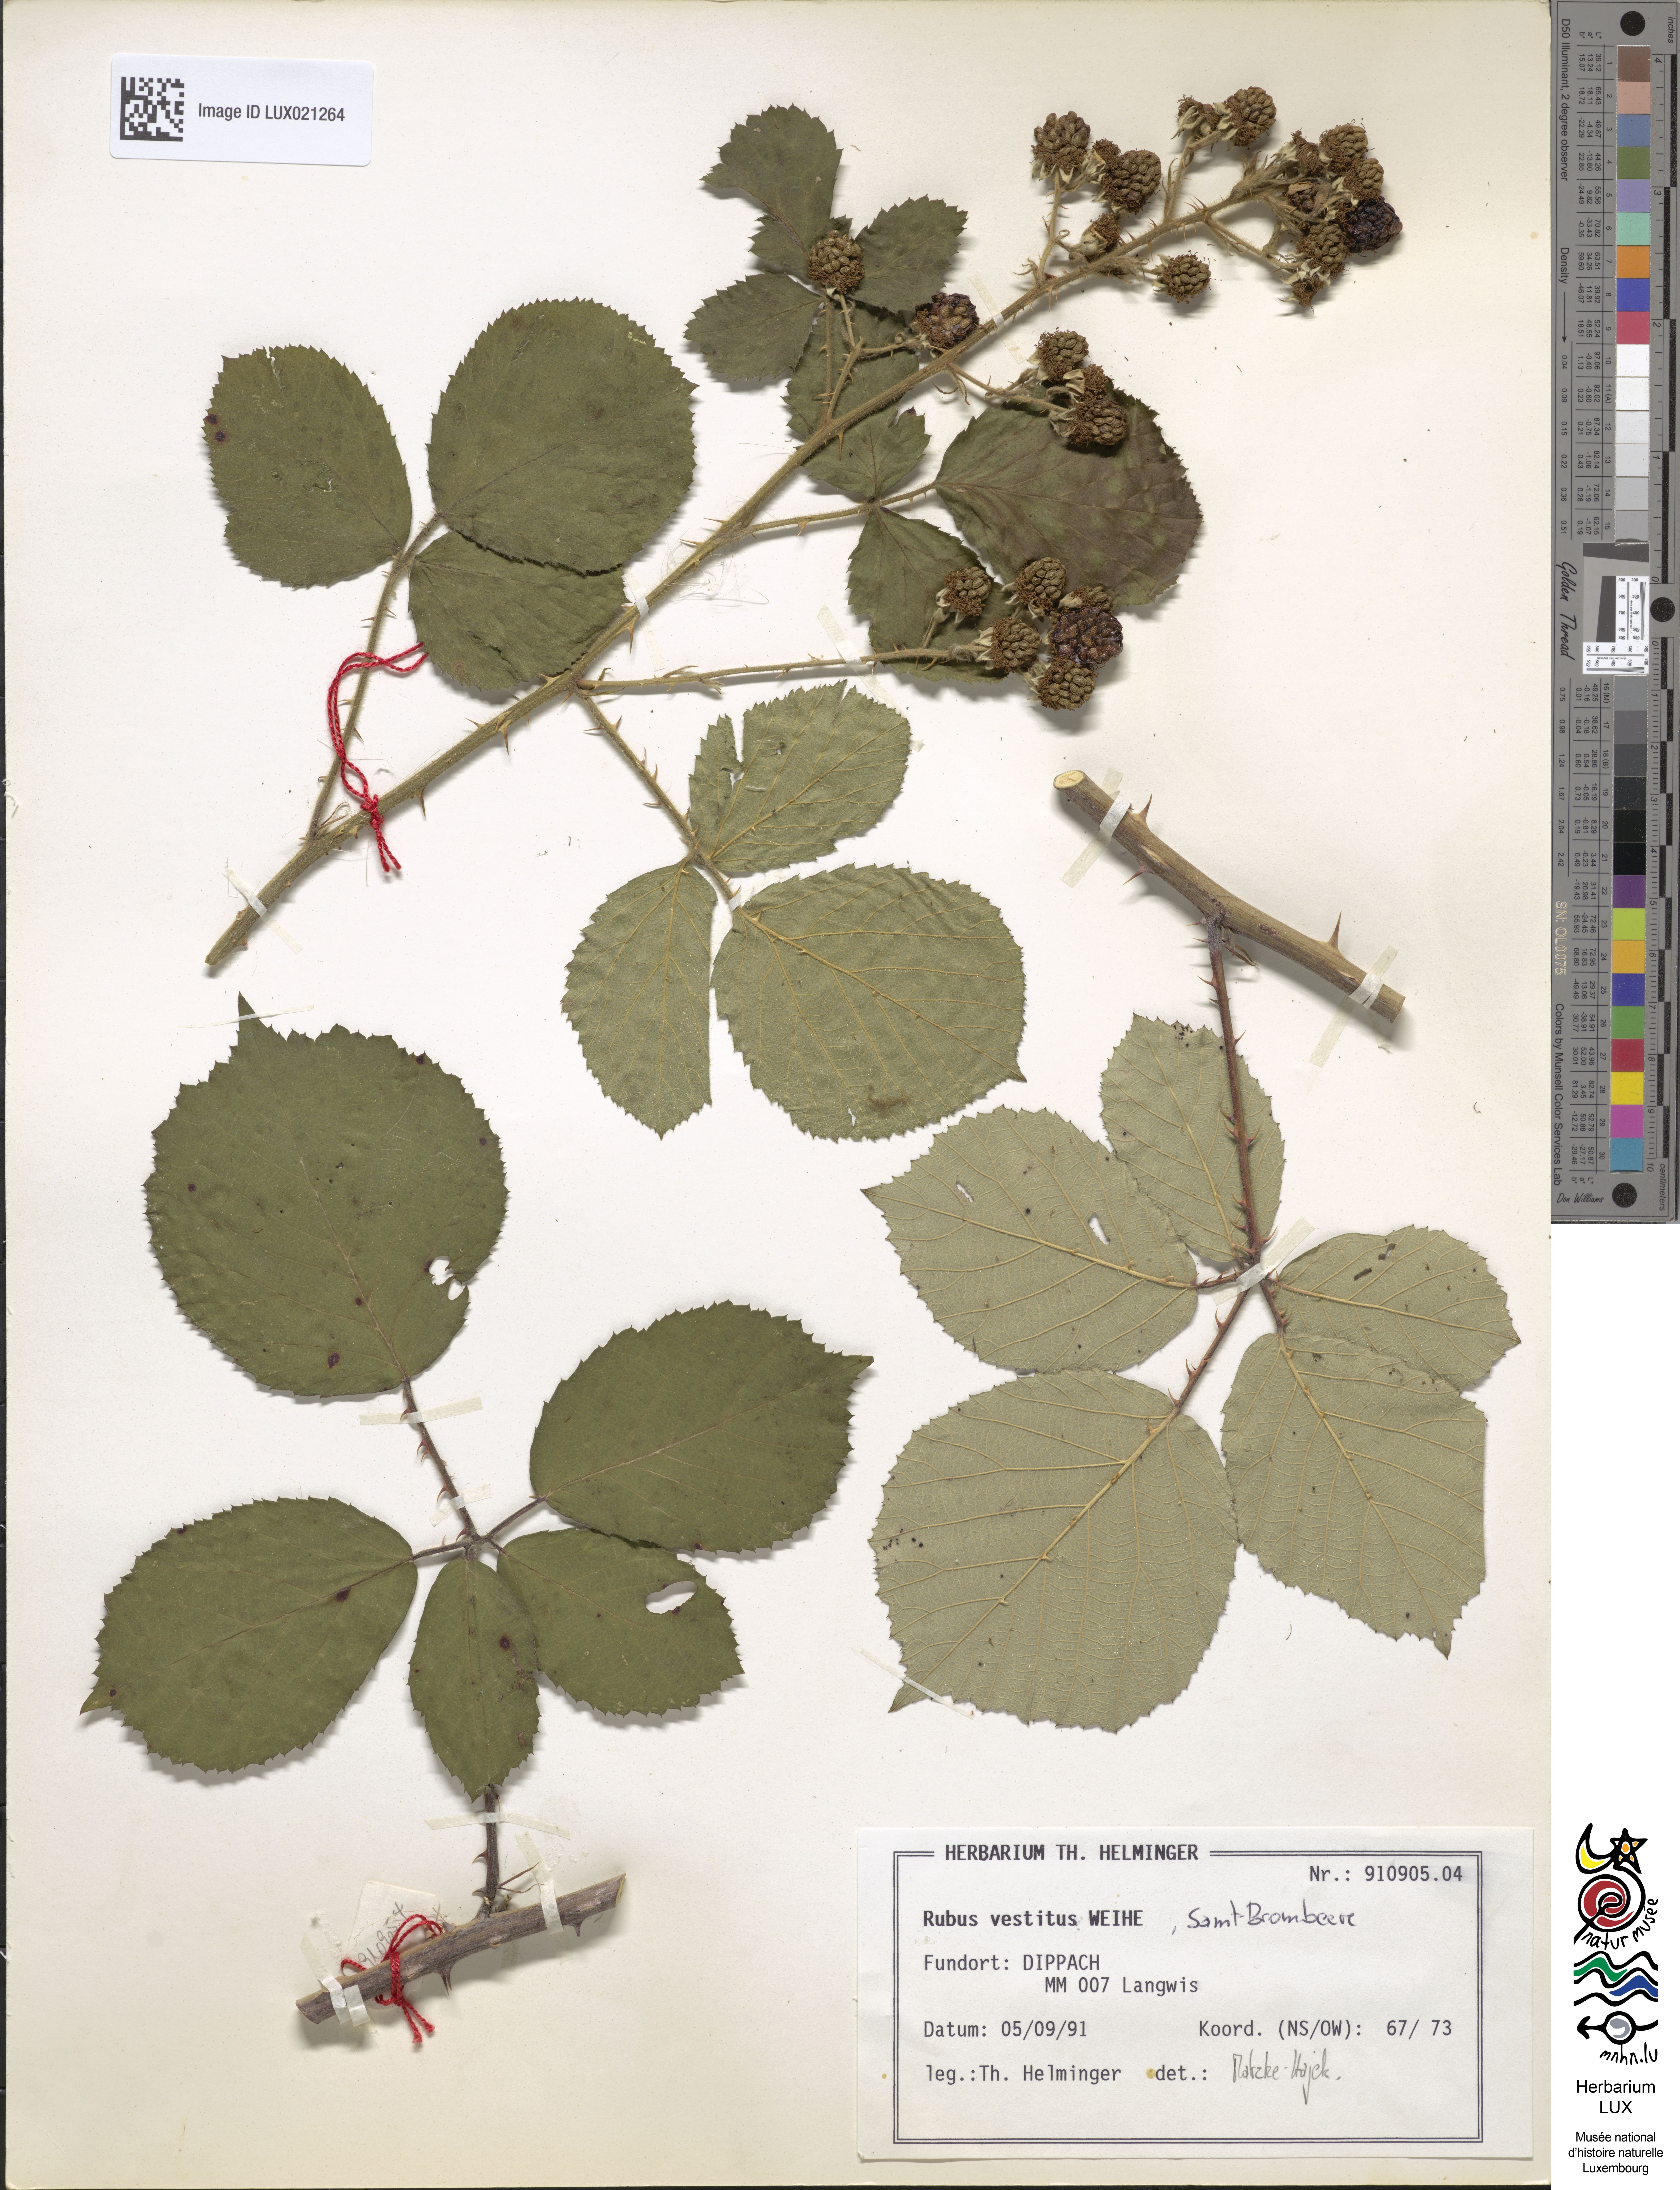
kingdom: Plantae
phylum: Tracheophyta
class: Magnoliopsida
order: Rosales
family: Rosaceae
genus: Rubus
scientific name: Rubus vestitus
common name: European blackberry
